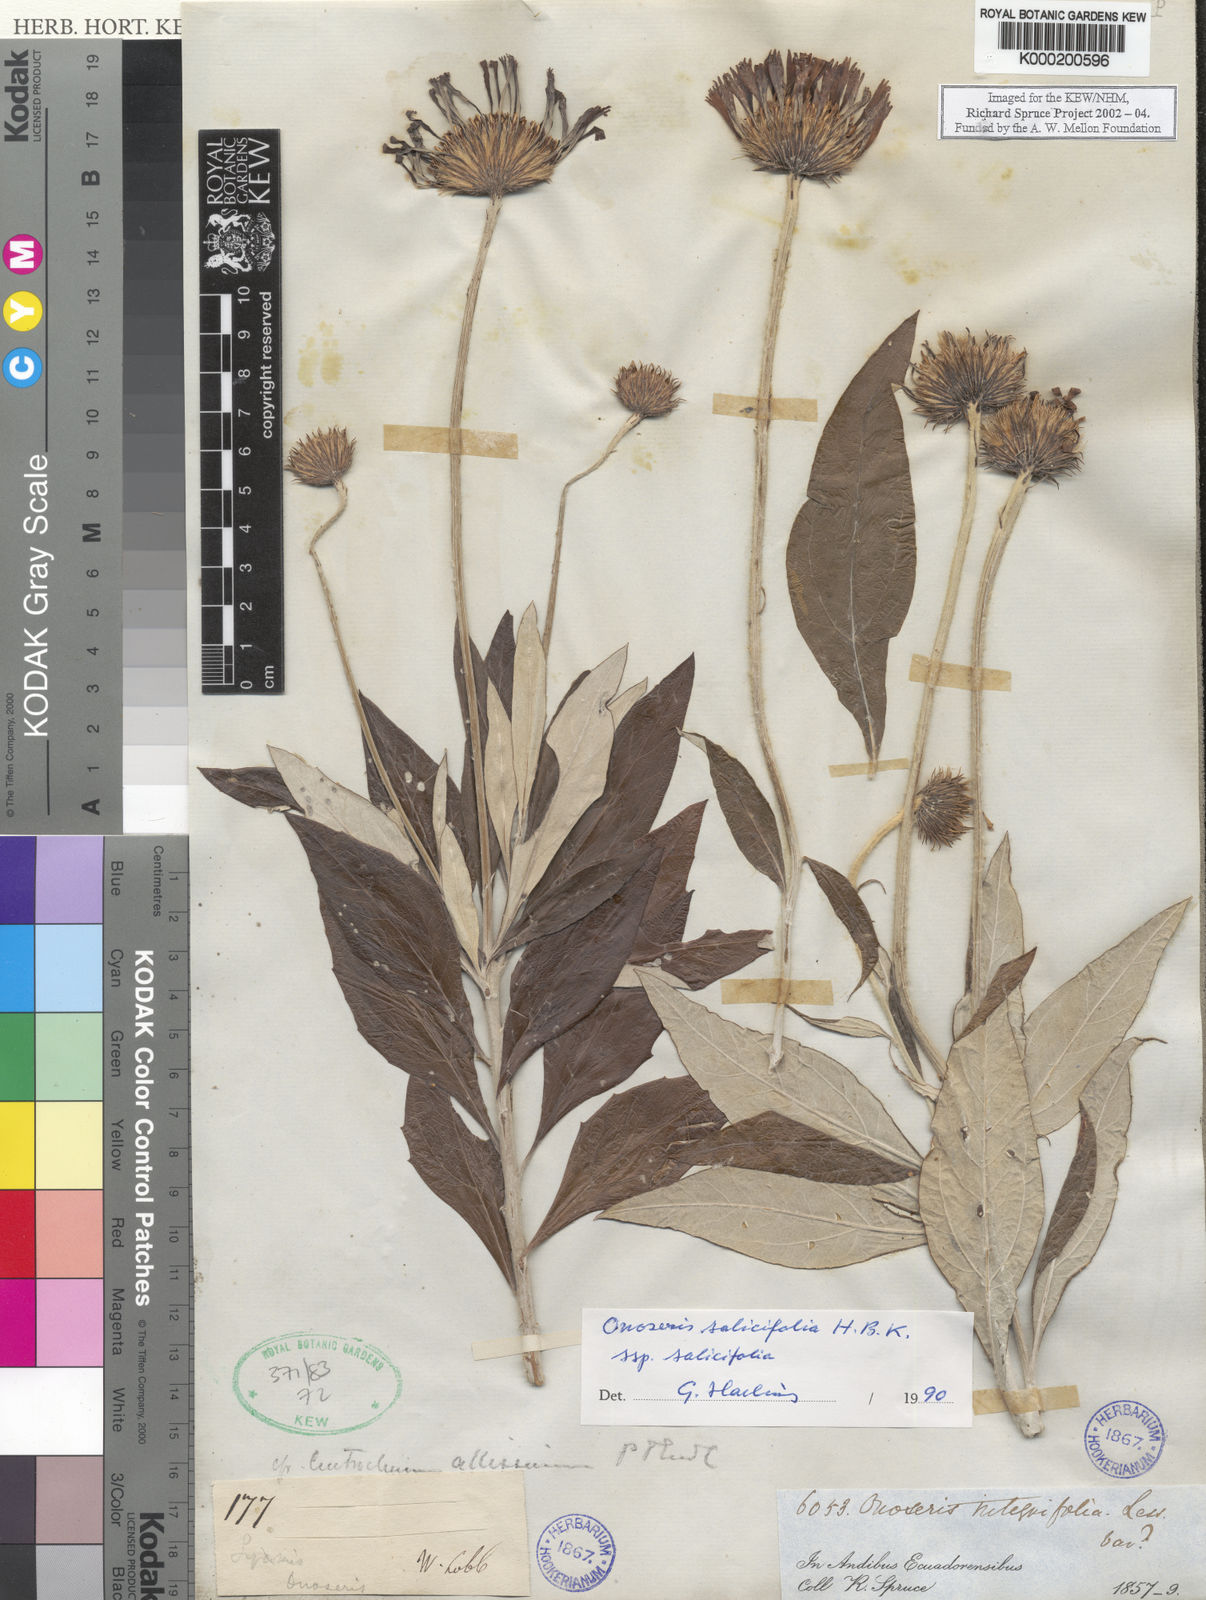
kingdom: Plantae
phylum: Tracheophyta
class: Magnoliopsida
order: Asterales
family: Asteraceae
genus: Onoseris
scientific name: Onoseris salicifolia
